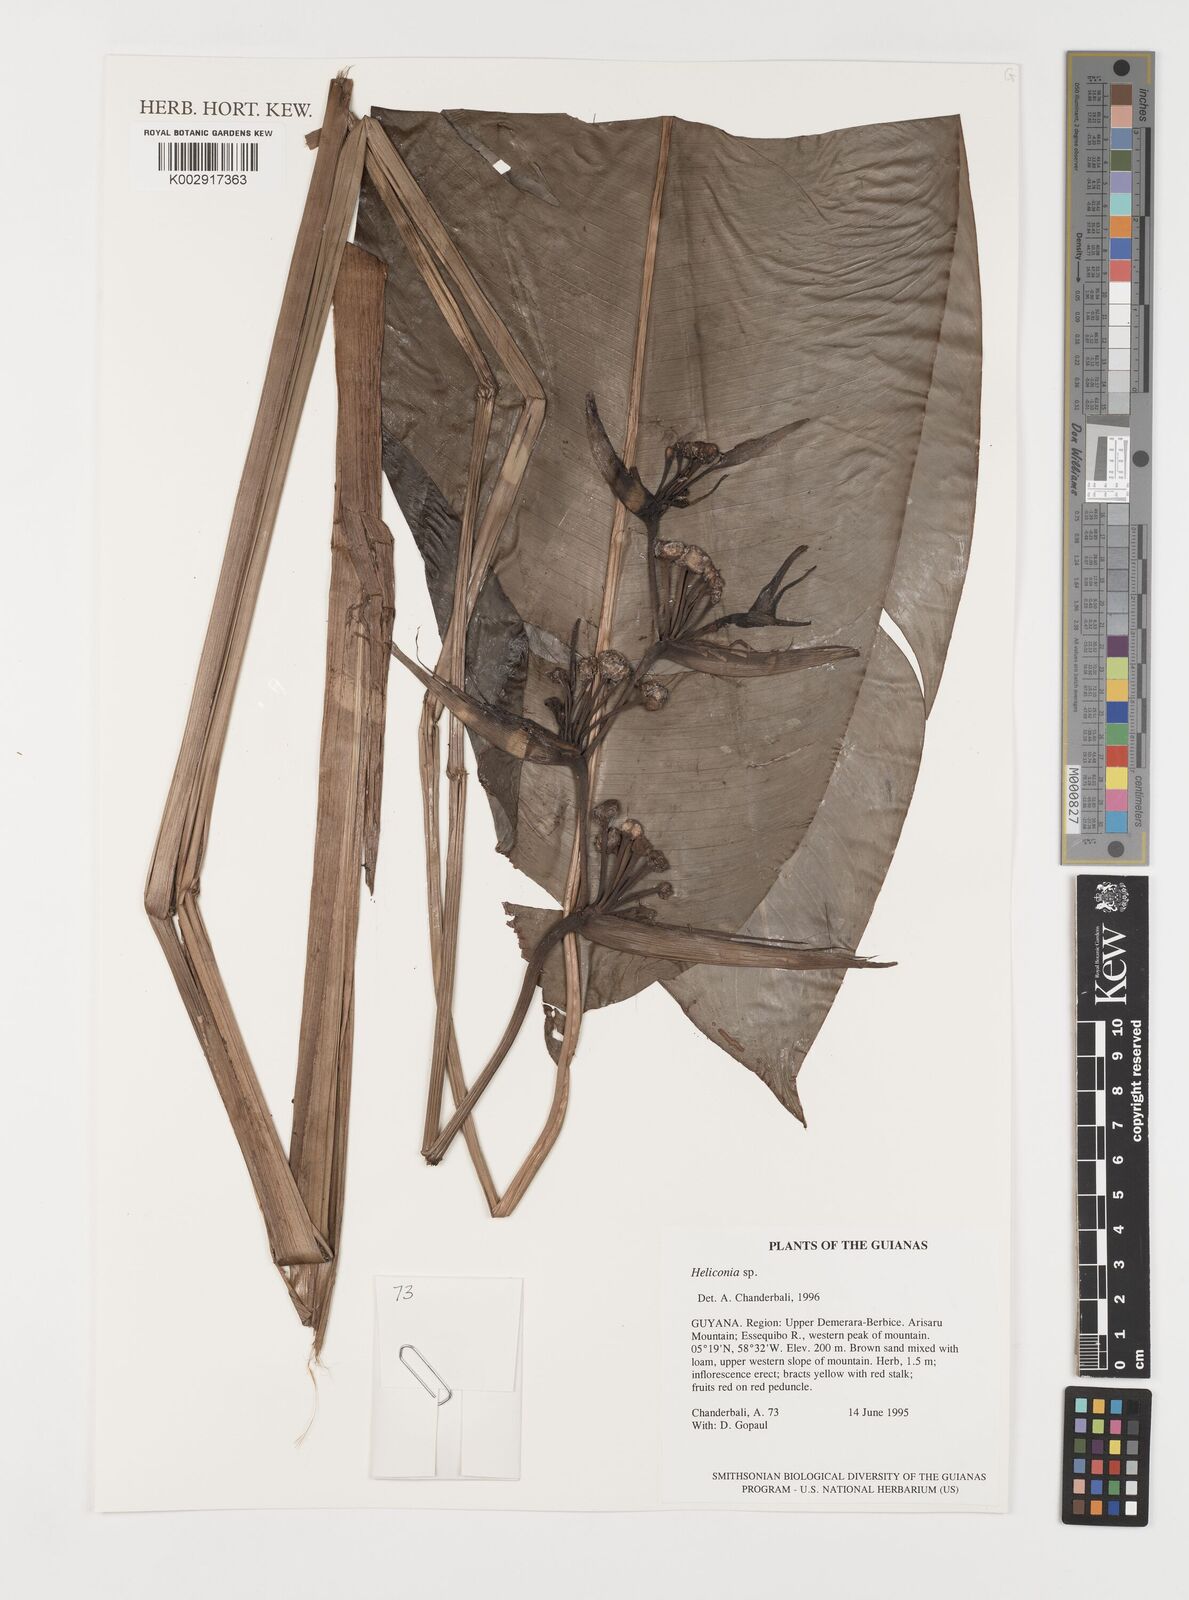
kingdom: Plantae
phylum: Tracheophyta
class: Liliopsida
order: Zingiberales
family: Heliconiaceae
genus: Heliconia
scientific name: Heliconia
